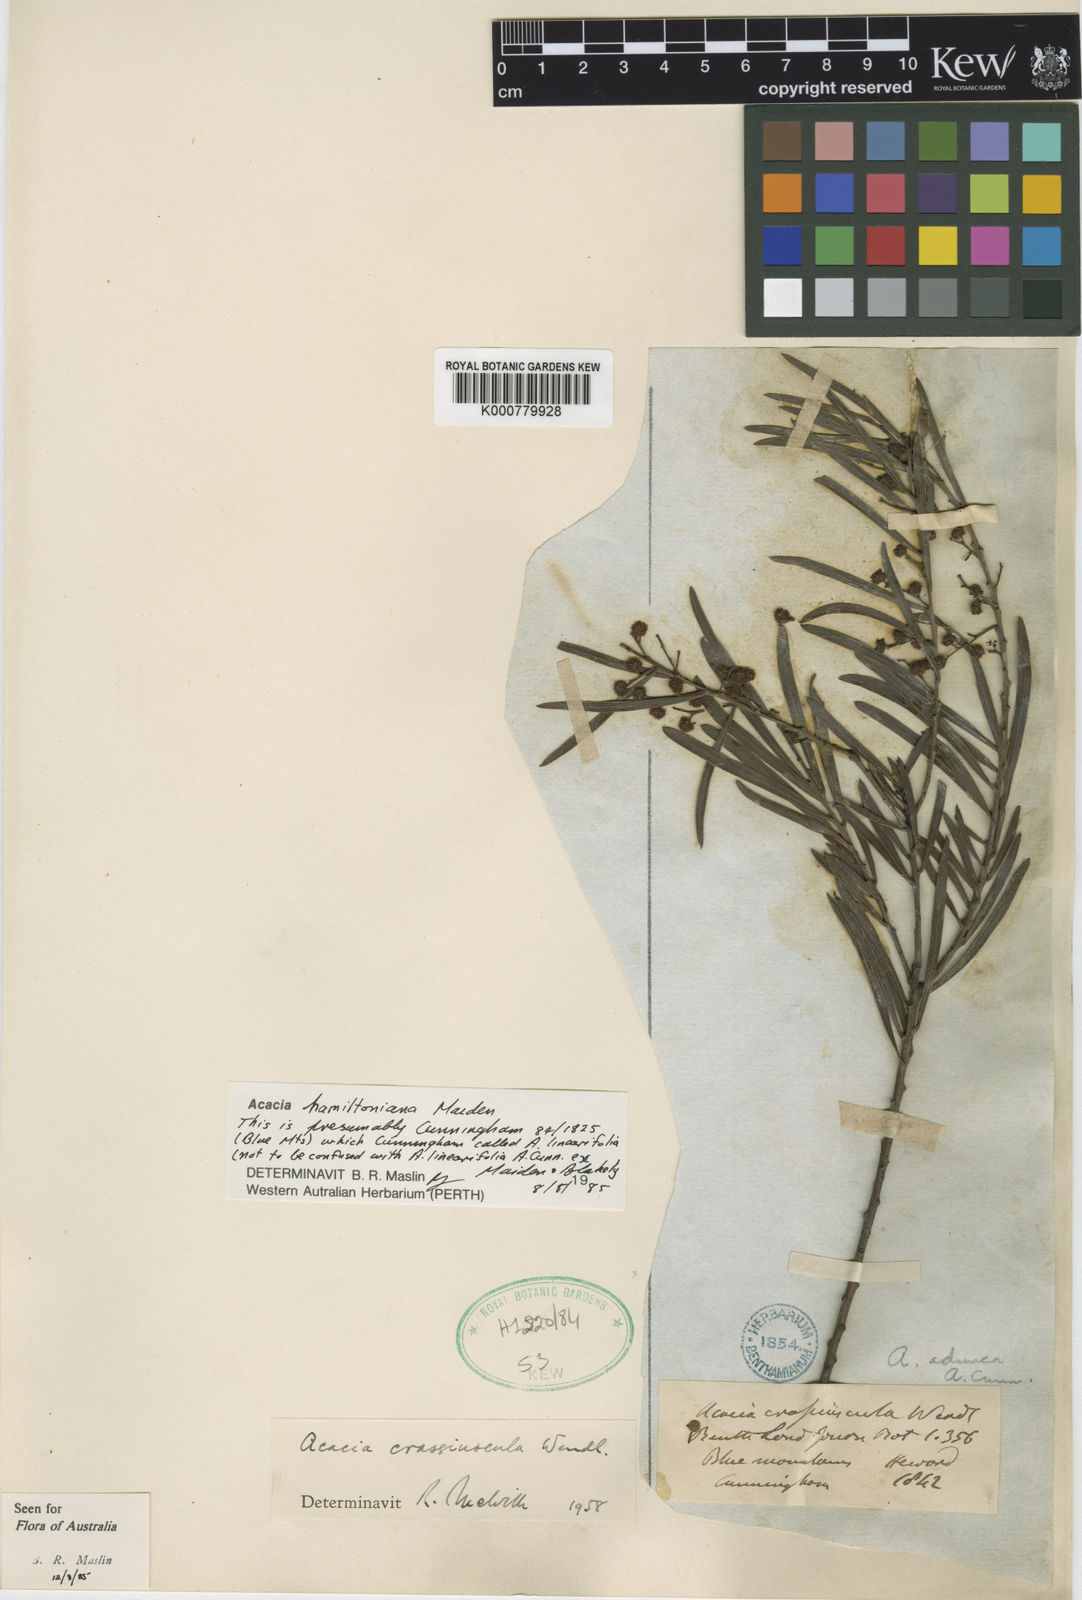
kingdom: Plantae
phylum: Tracheophyta
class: Magnoliopsida
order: Fabales
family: Fabaceae
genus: Acacia
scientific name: Acacia hamiltoniana
